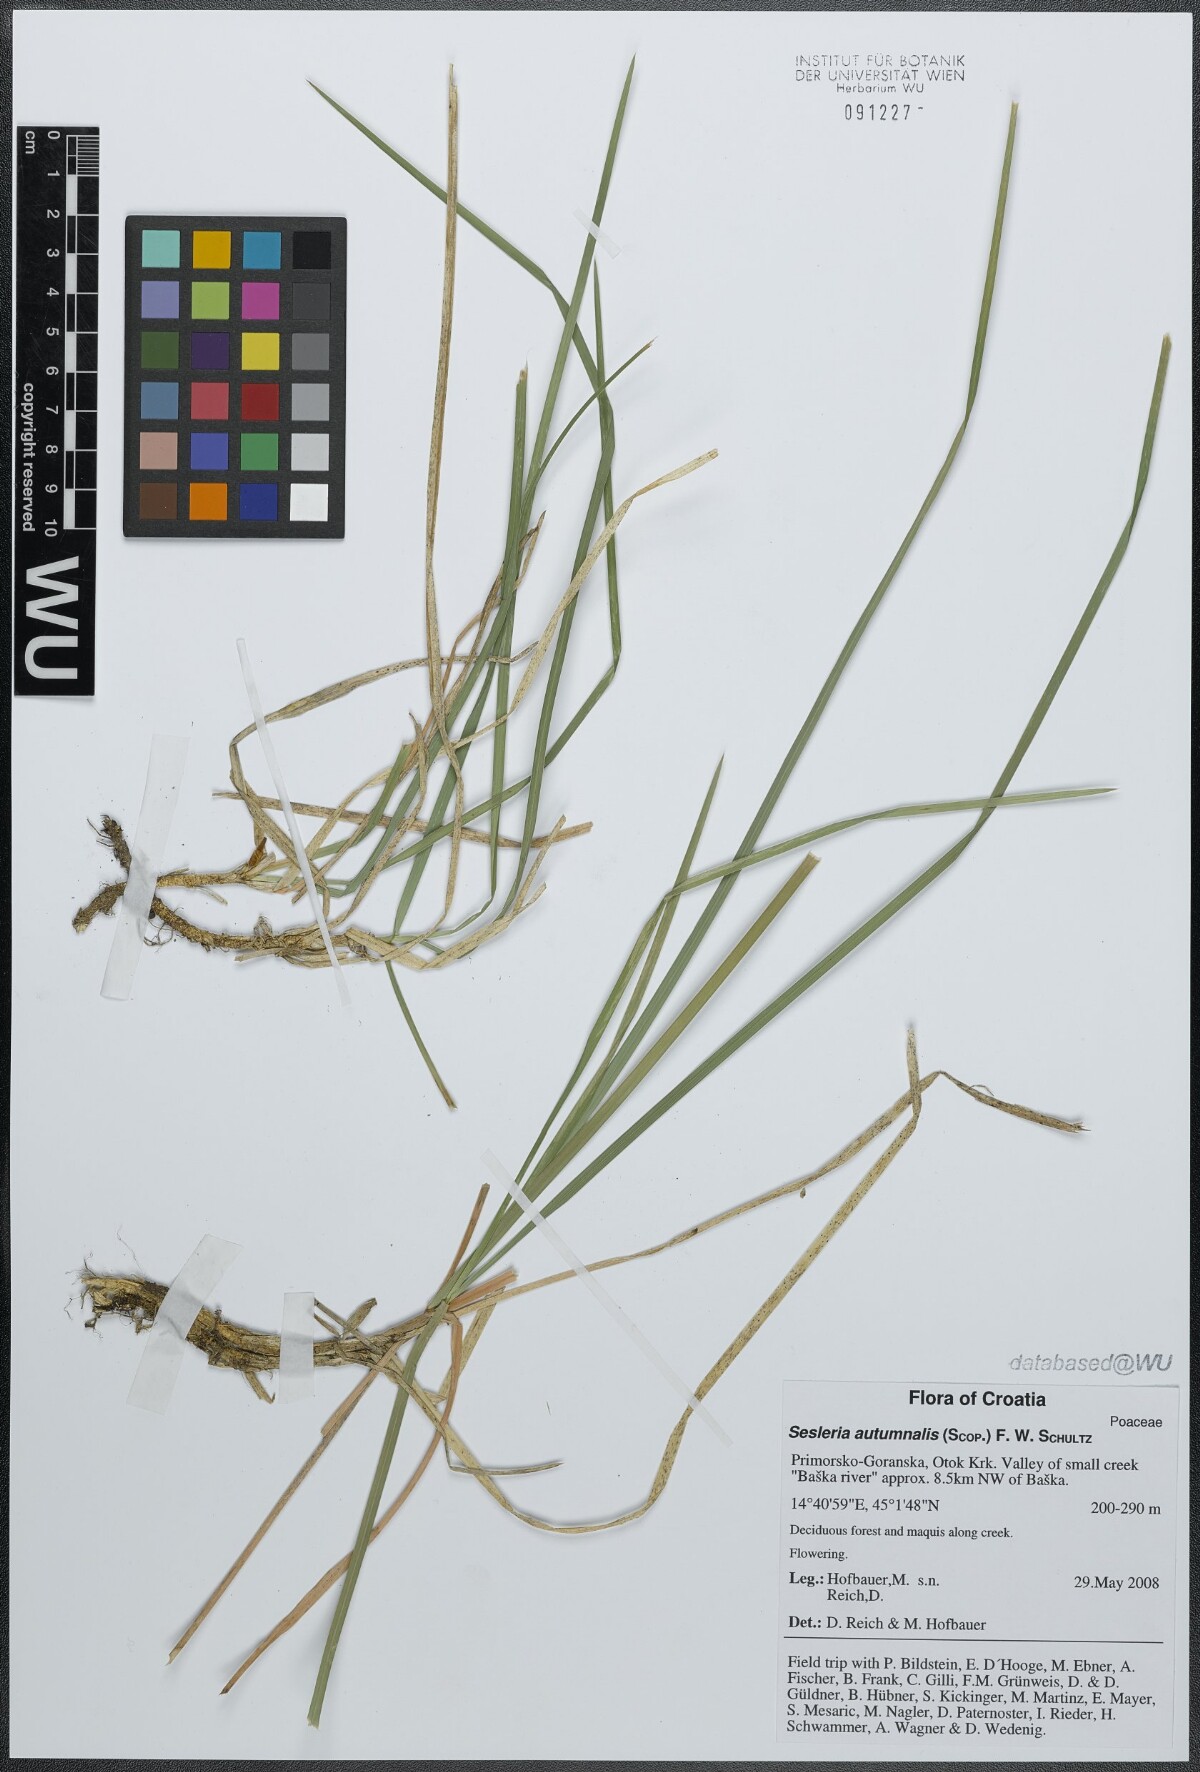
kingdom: Plantae
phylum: Tracheophyta
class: Liliopsida
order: Poales
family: Poaceae
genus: Sesleria
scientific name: Sesleria autumnalis
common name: Autumn moor grass
